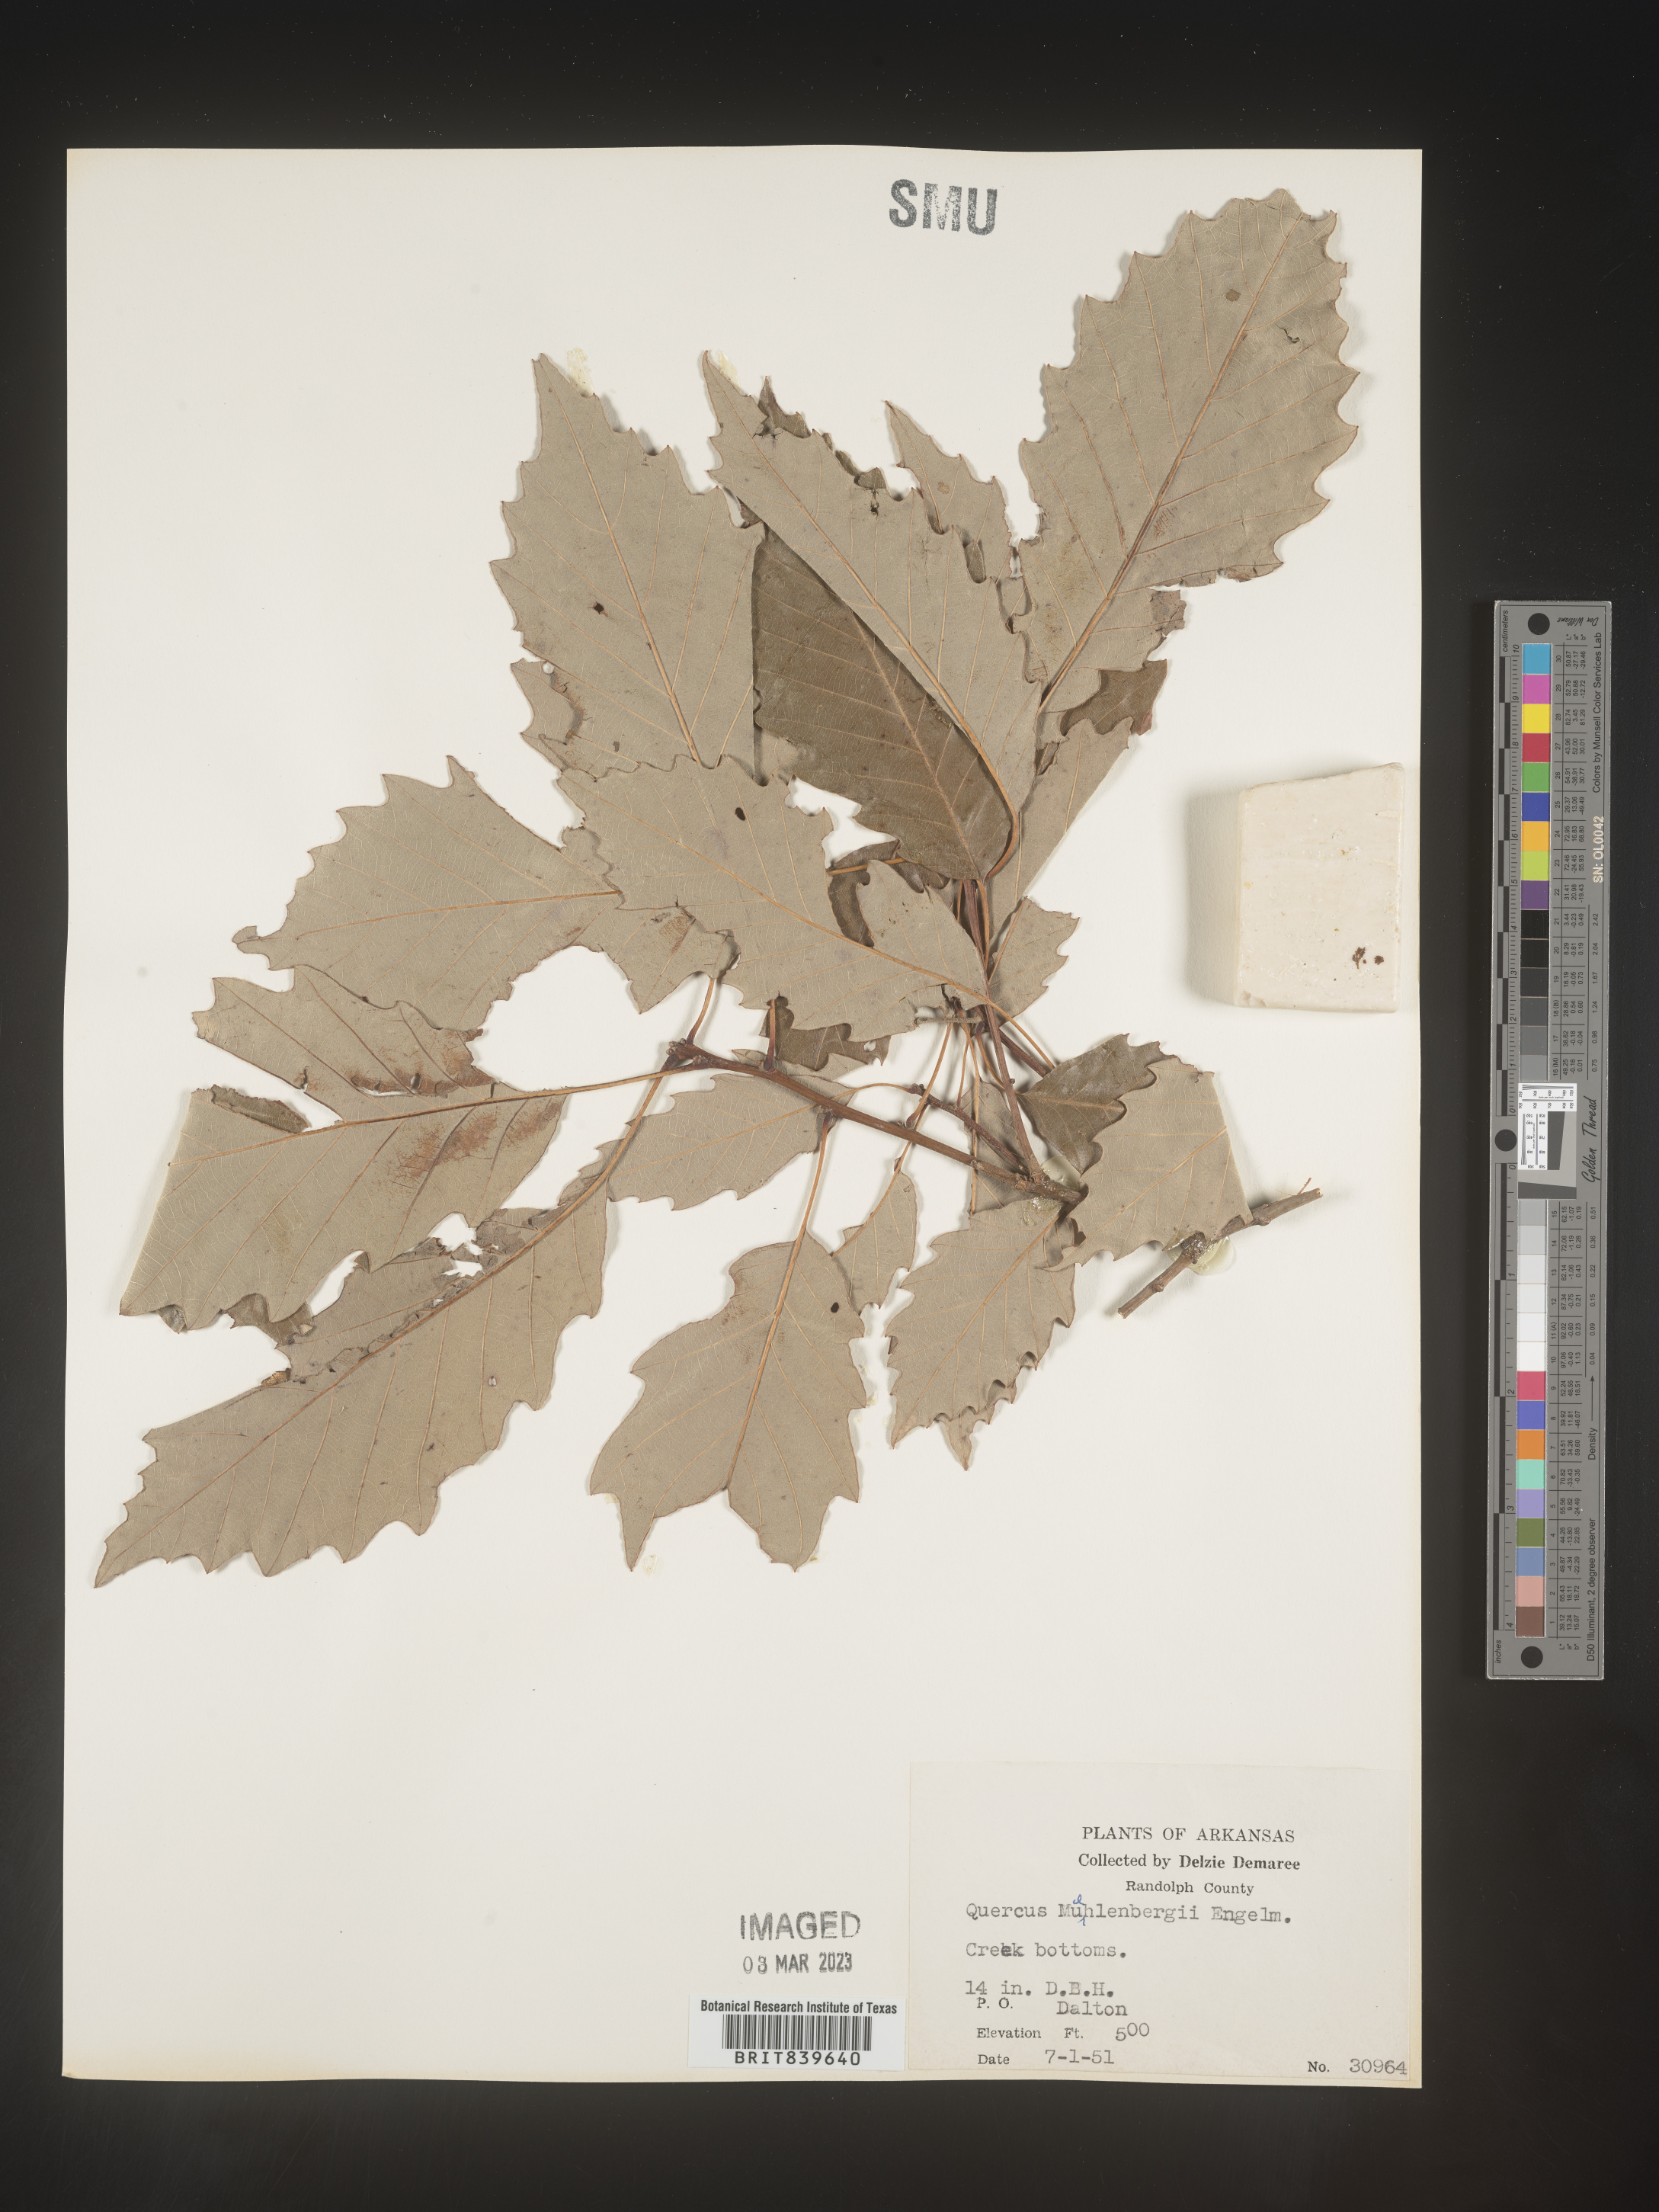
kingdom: Plantae
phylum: Tracheophyta
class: Magnoliopsida
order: Fagales
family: Fagaceae
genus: Quercus
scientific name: Quercus muehlenbergii
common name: Chinkapin oak
